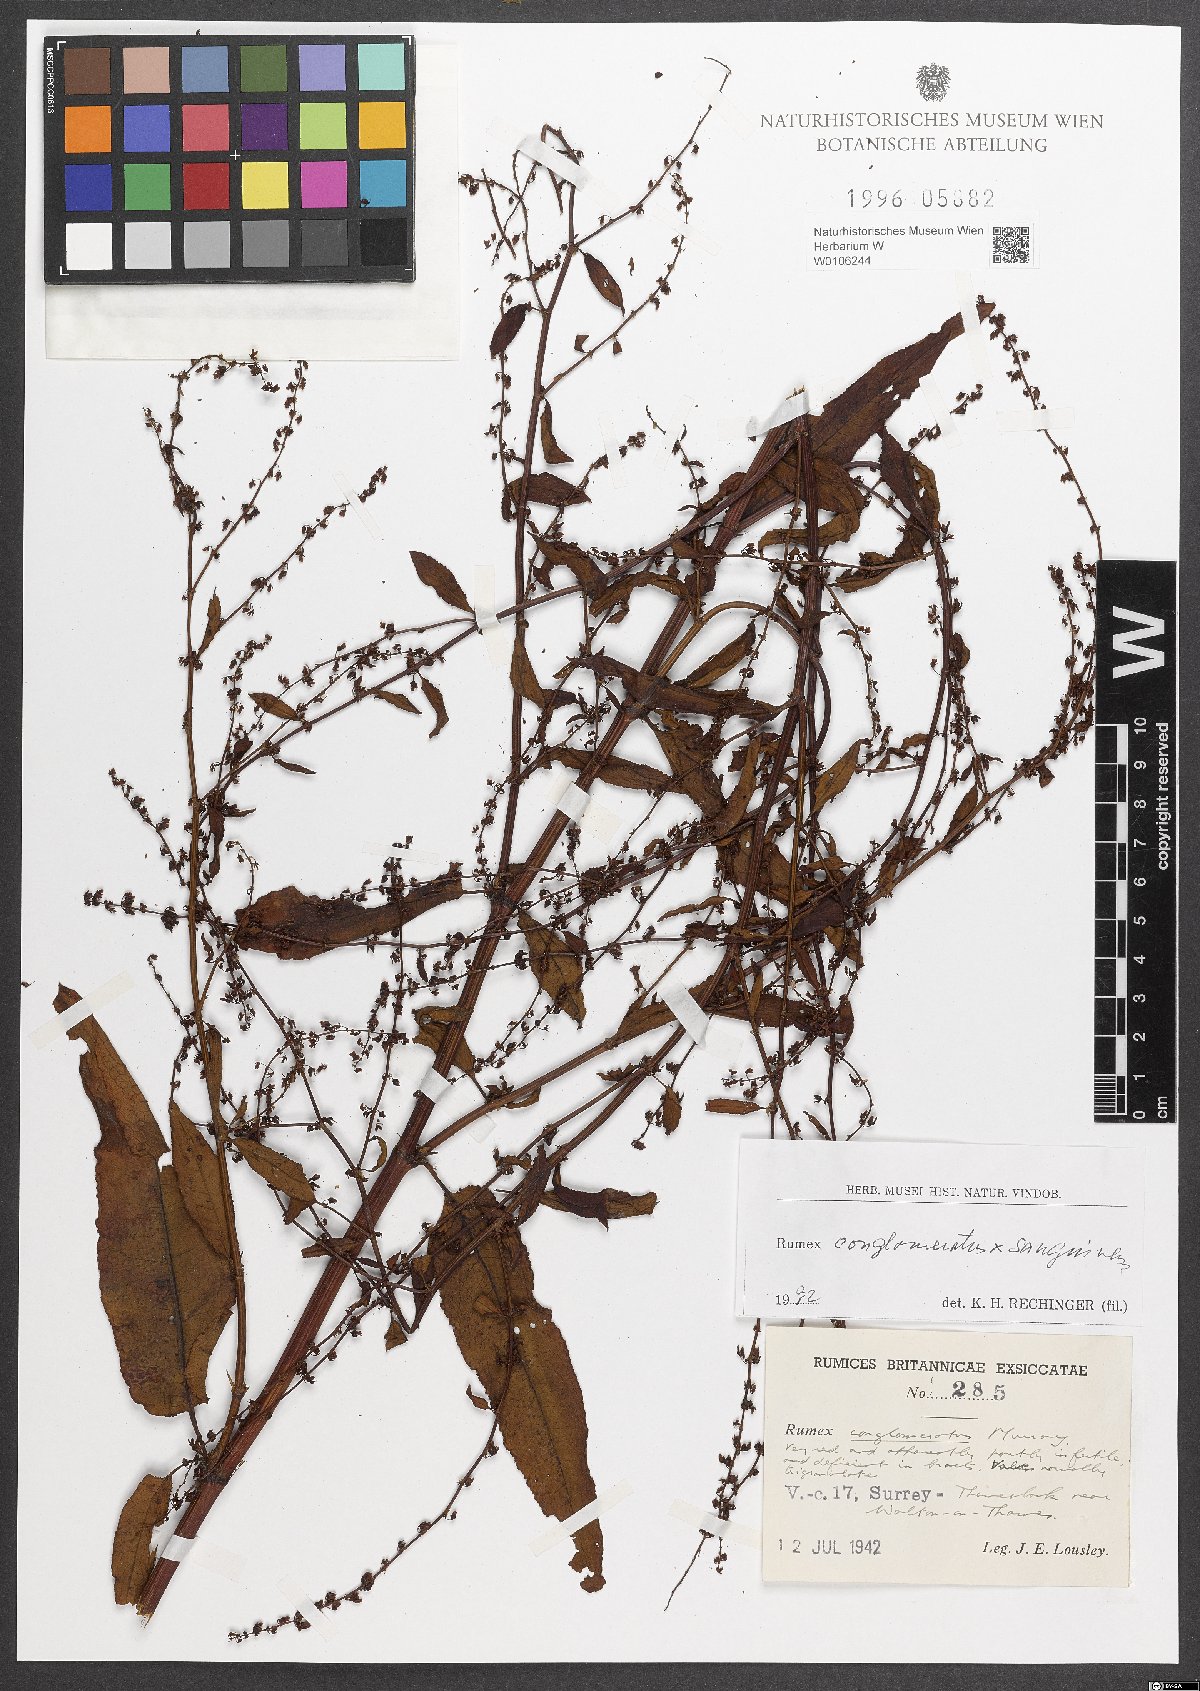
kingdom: Plantae
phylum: Tracheophyta
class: Magnoliopsida
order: Caryophyllales
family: Polygonaceae
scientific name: Polygonaceae
